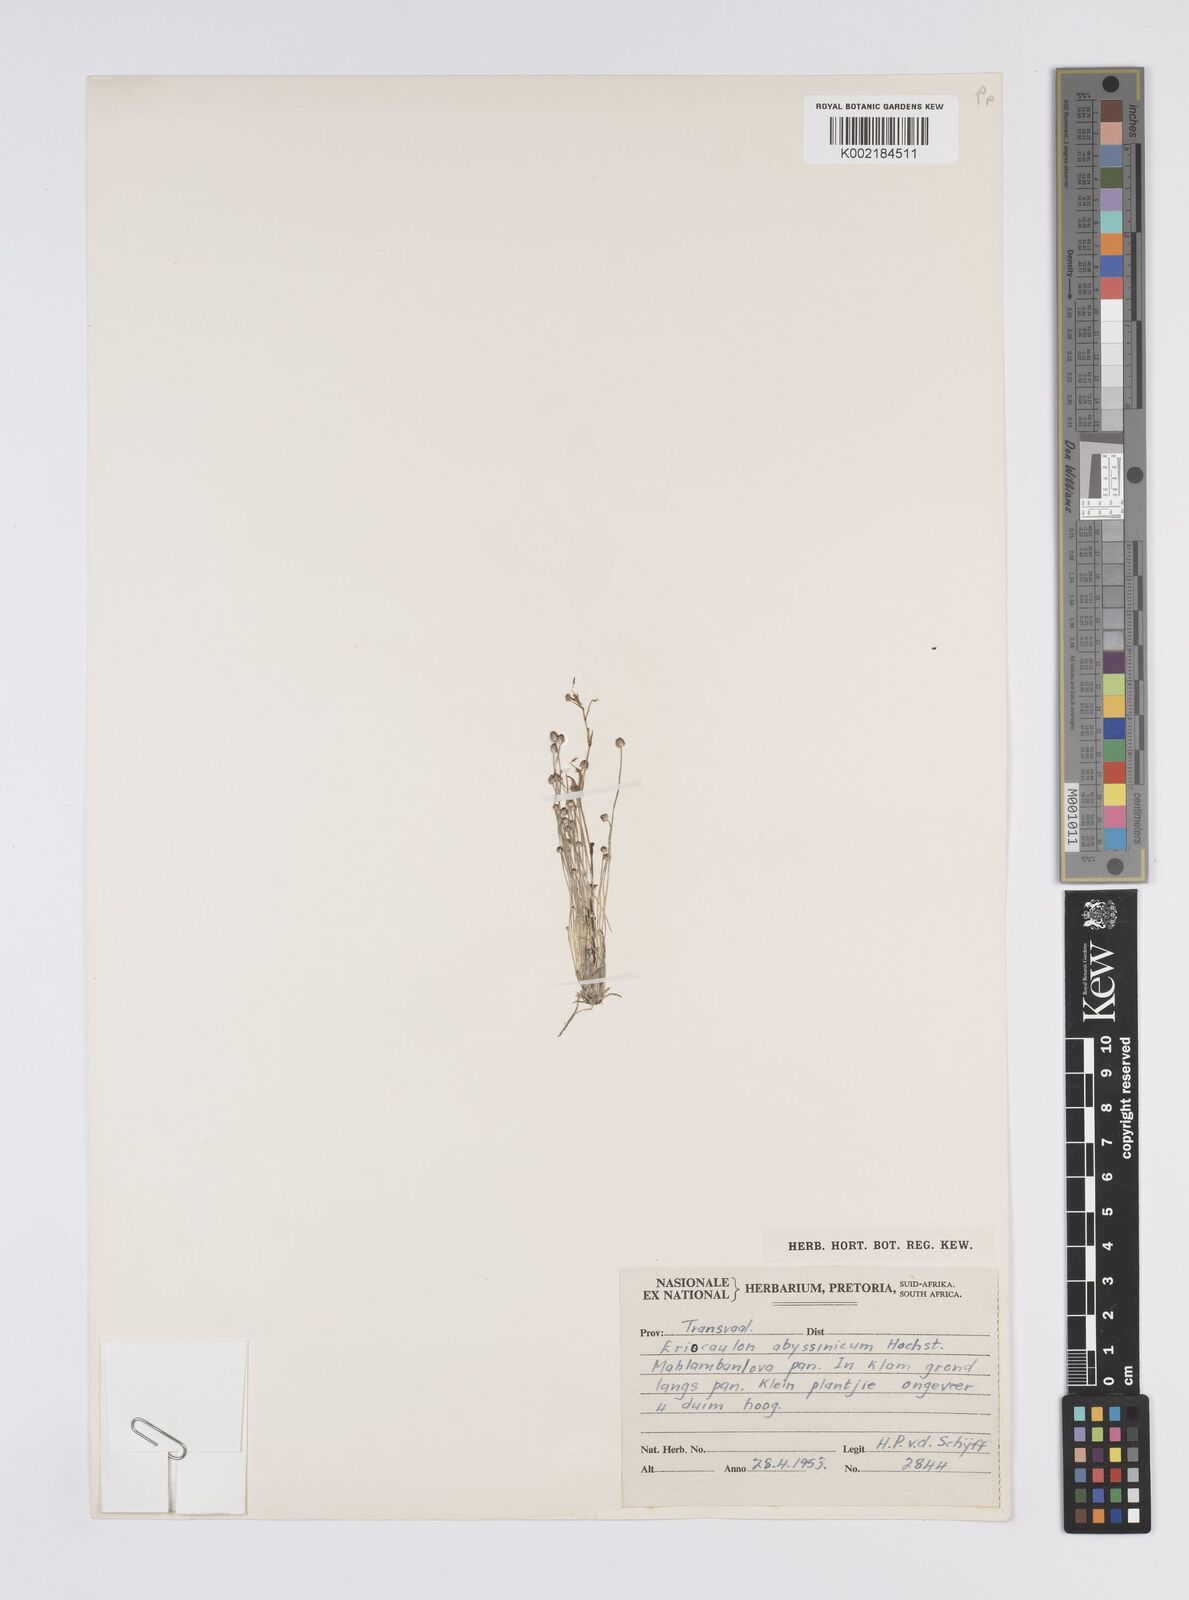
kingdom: Plantae
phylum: Tracheophyta
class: Liliopsida
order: Poales
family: Eriocaulaceae
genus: Eriocaulon
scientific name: Eriocaulon abyssinicum
